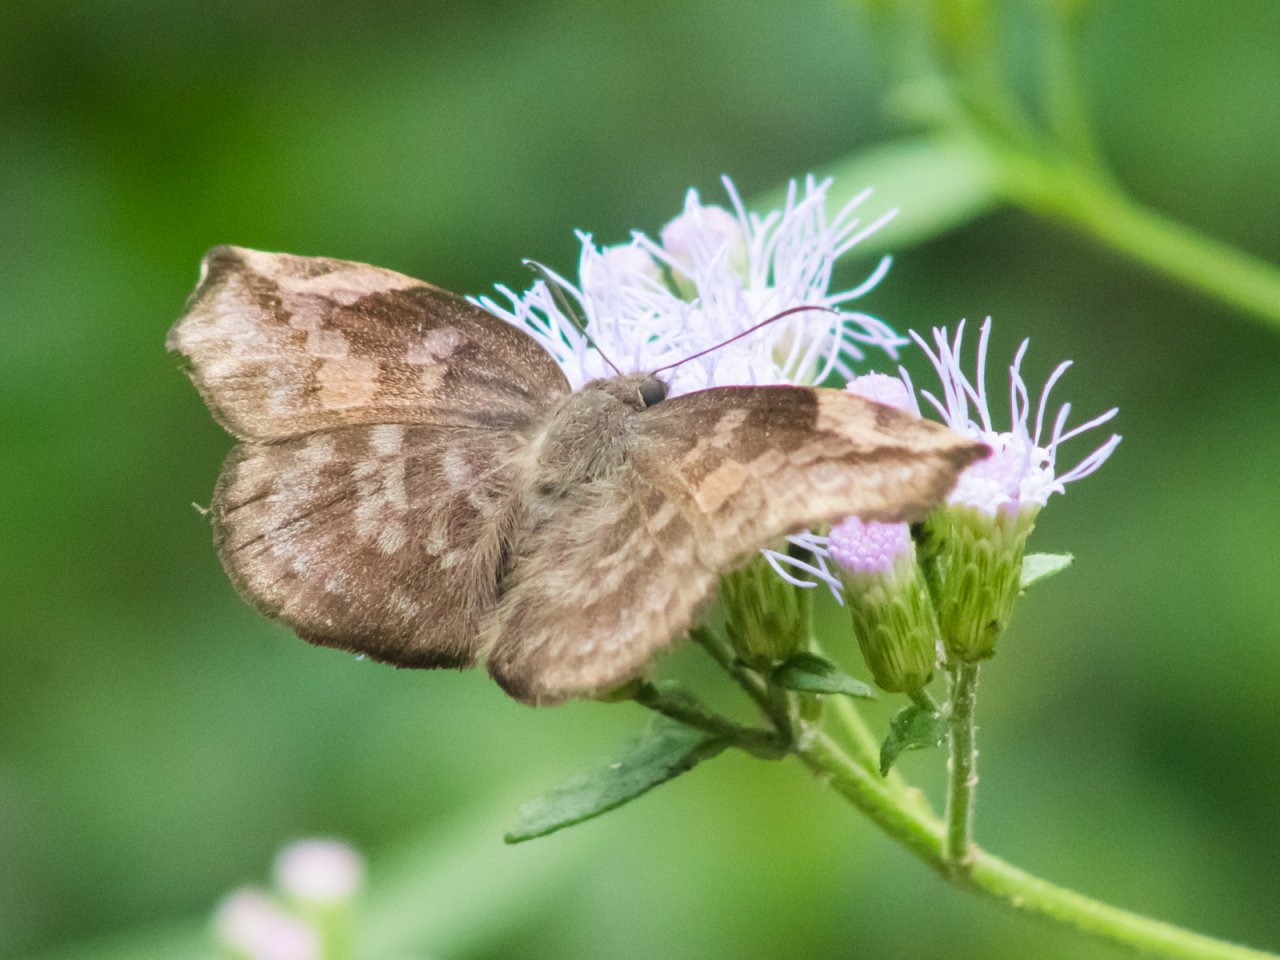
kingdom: Animalia
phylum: Arthropoda
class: Insecta
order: Lepidoptera
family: Hesperiidae
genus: Achlyodes
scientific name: Achlyodes thraso
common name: Sickle-winged Skipper
